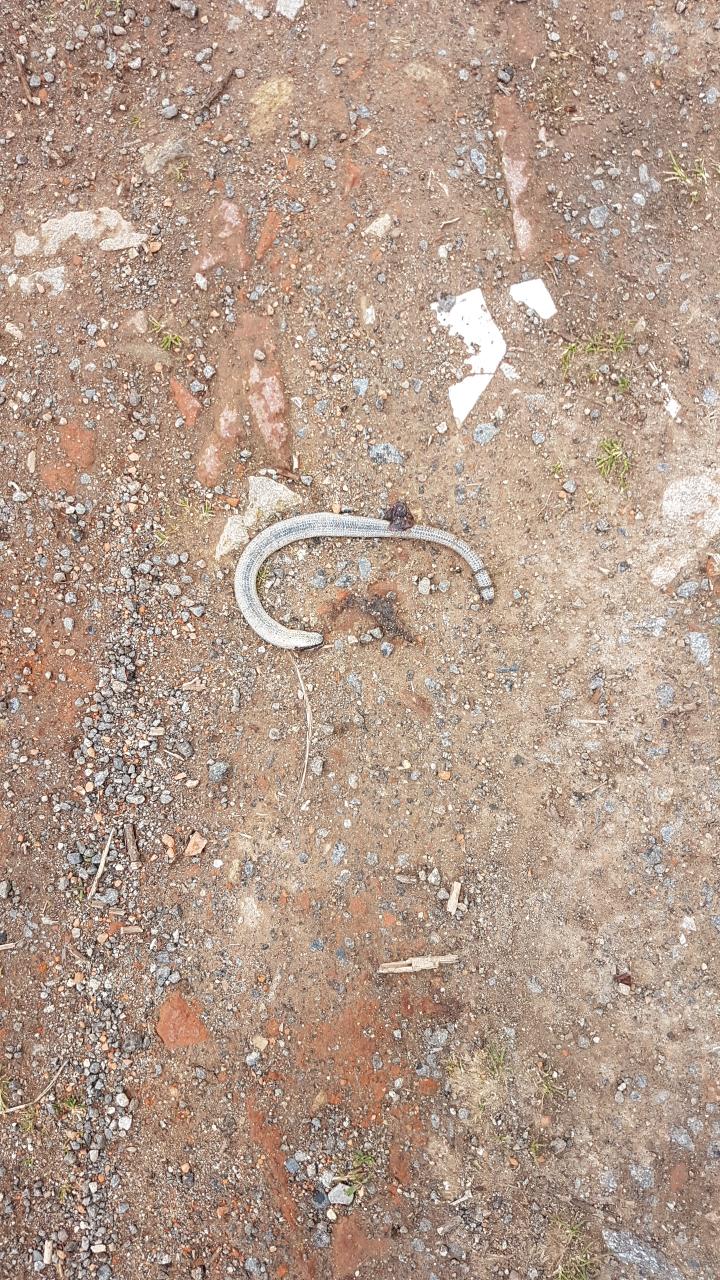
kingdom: Animalia
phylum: Chordata
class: Squamata
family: Anguidae
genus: Anguis
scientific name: Anguis fragilis
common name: Slow worm
